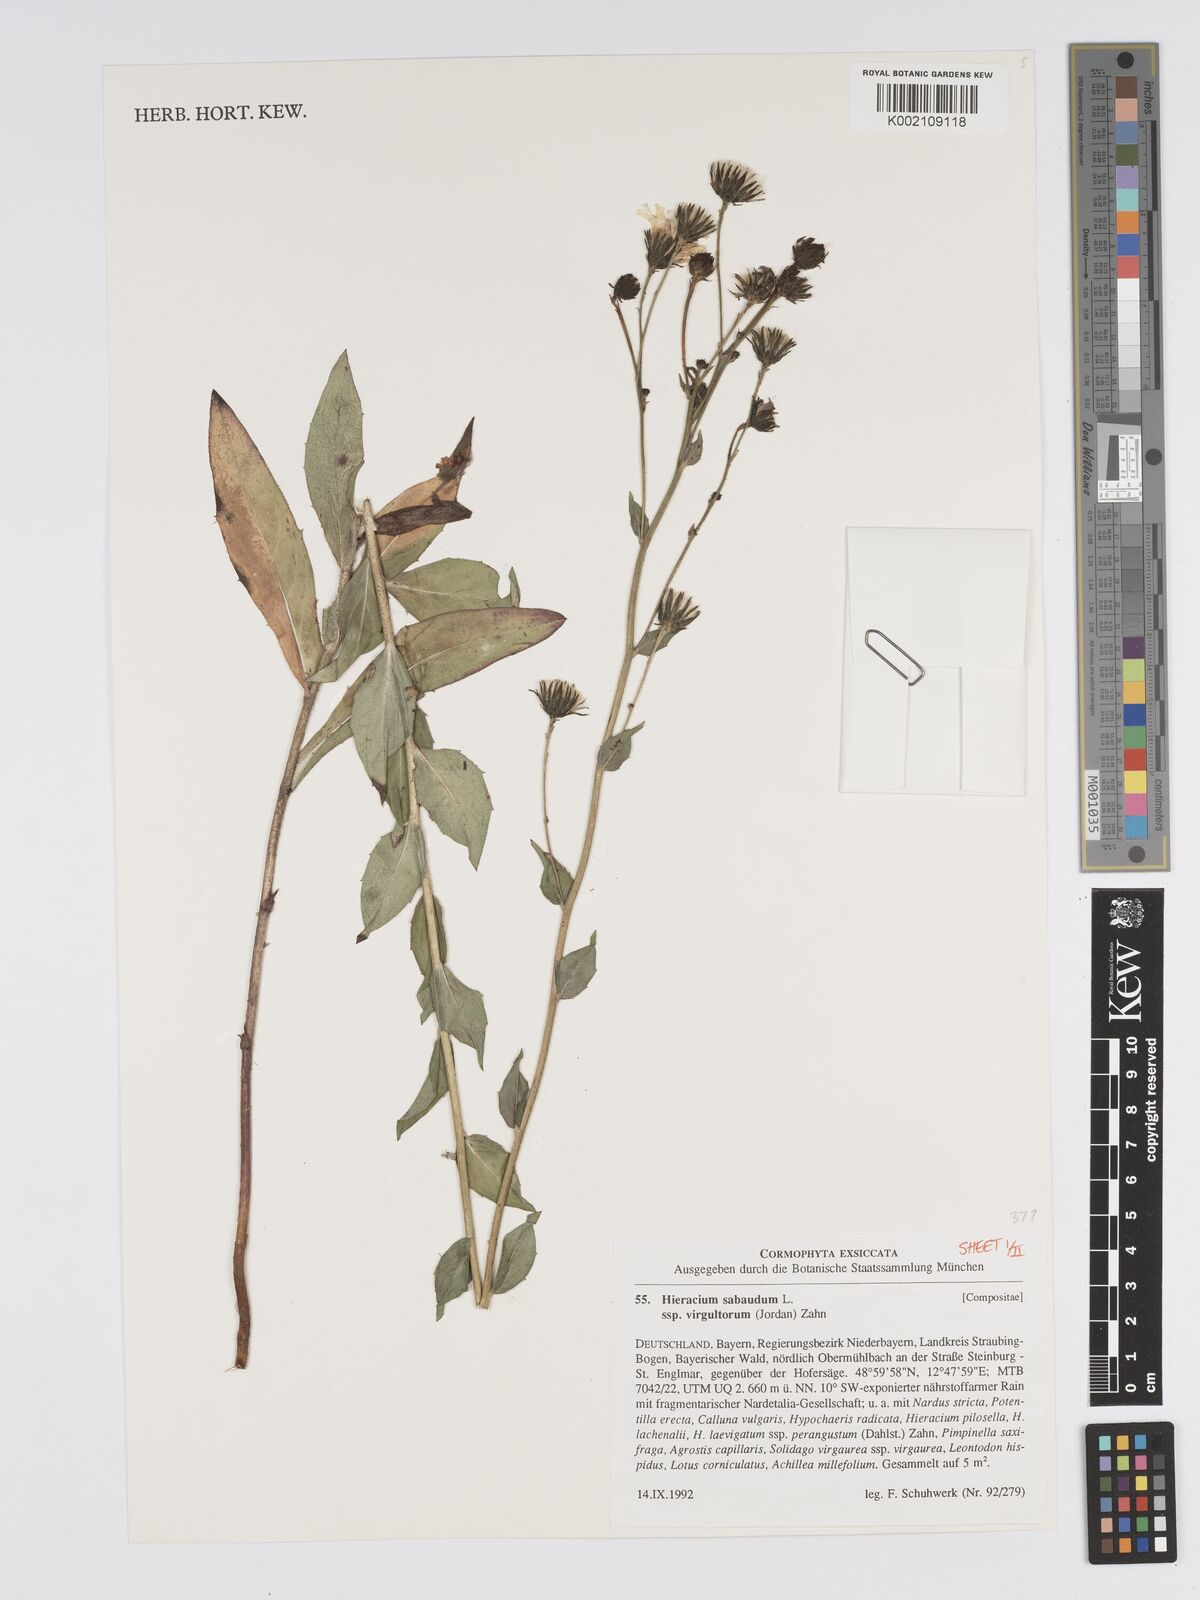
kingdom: Plantae
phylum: Tracheophyta
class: Magnoliopsida
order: Asterales
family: Asteraceae
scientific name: Asteraceae
